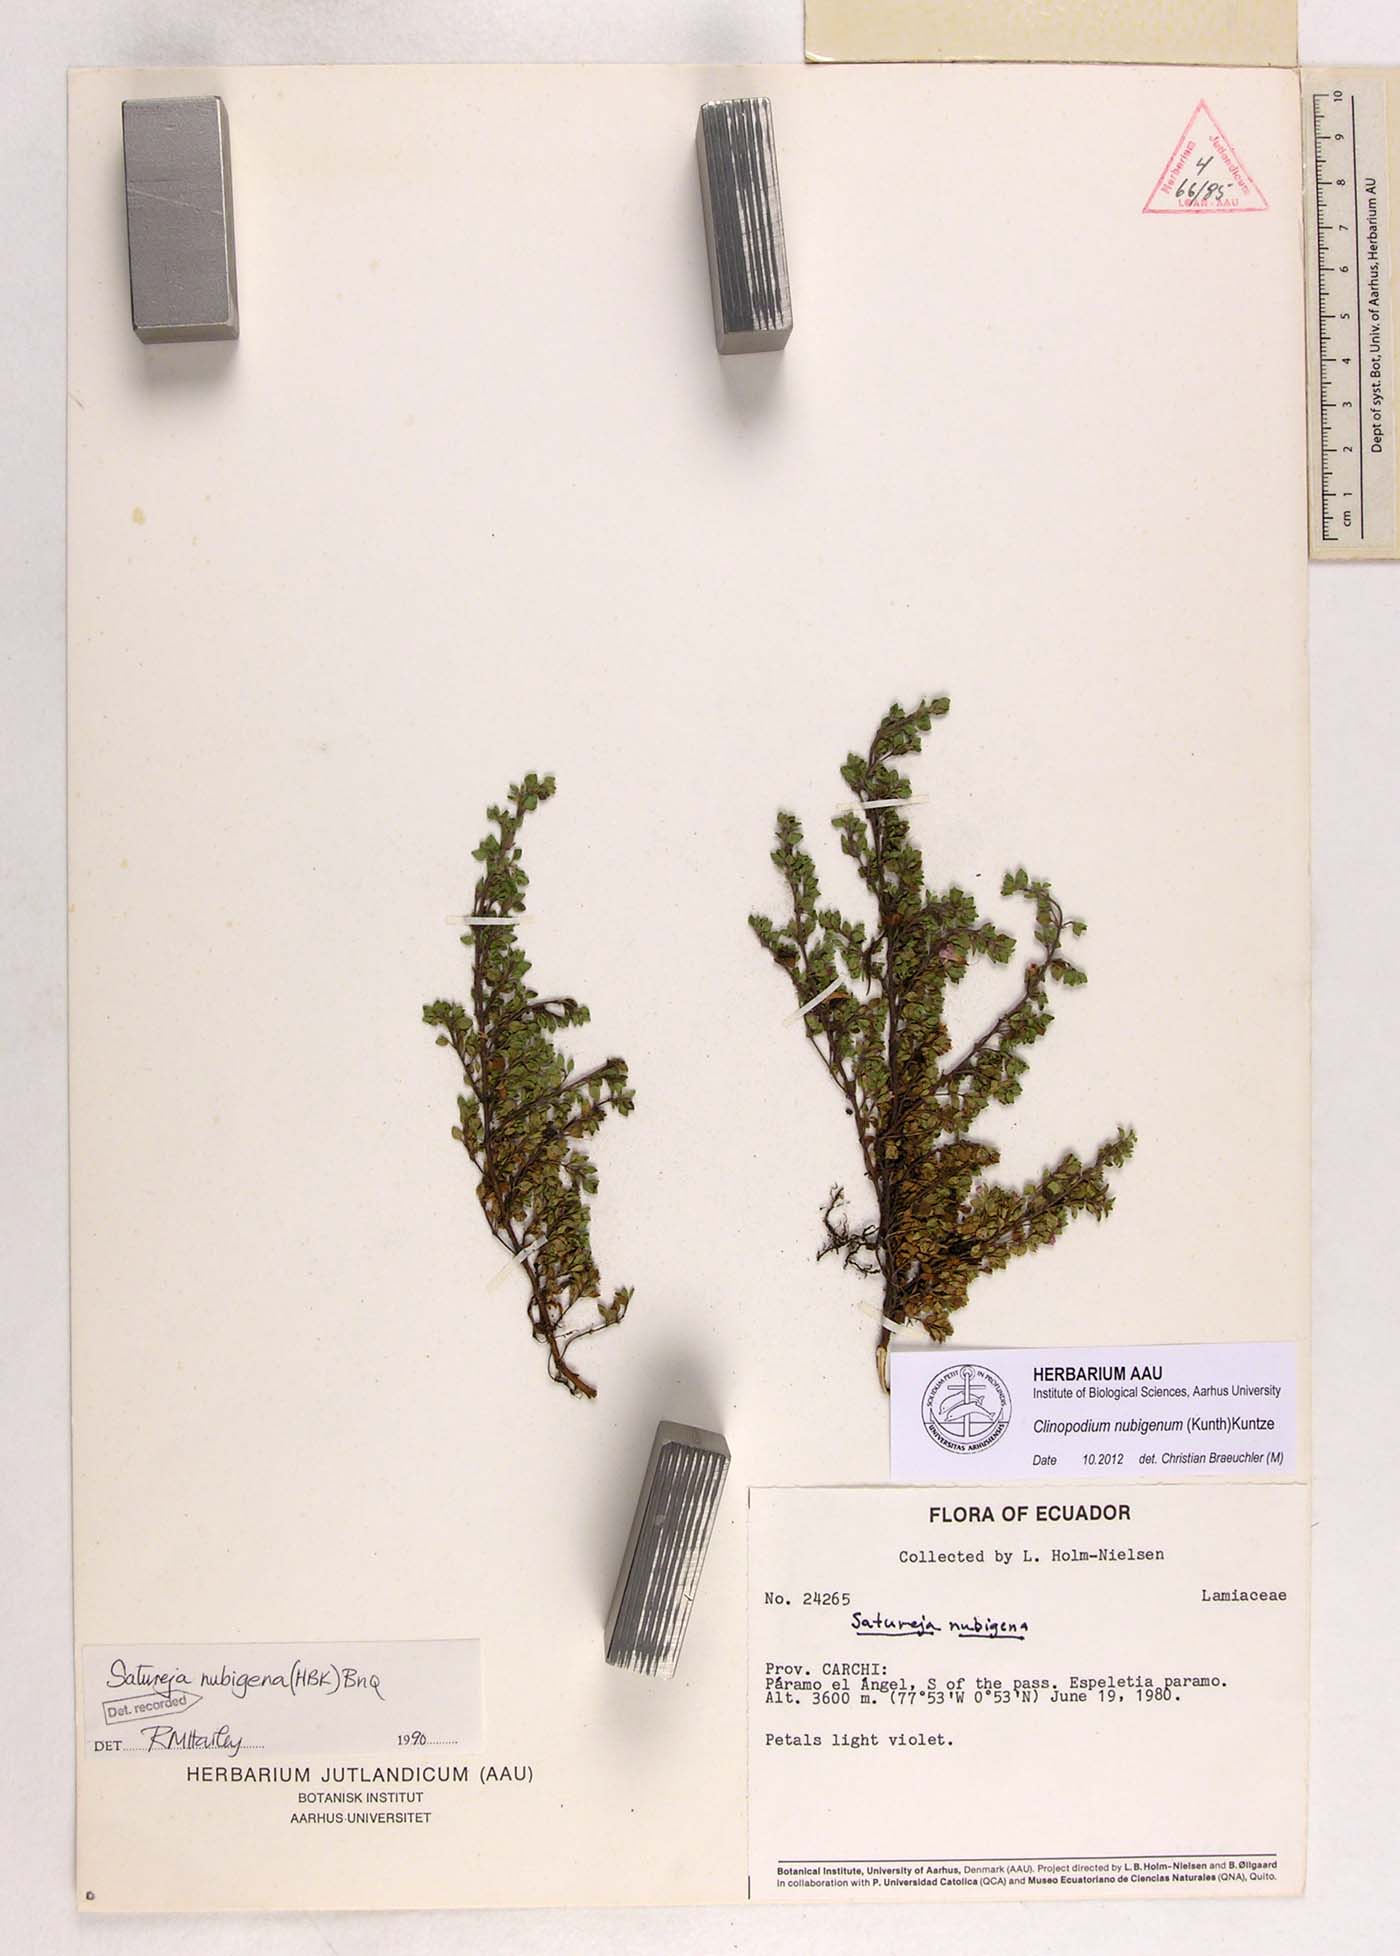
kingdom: Plantae
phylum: Tracheophyta
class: Magnoliopsida
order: Lamiales
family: Lamiaceae
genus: Clinopodium
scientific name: Clinopodium nubigenum
